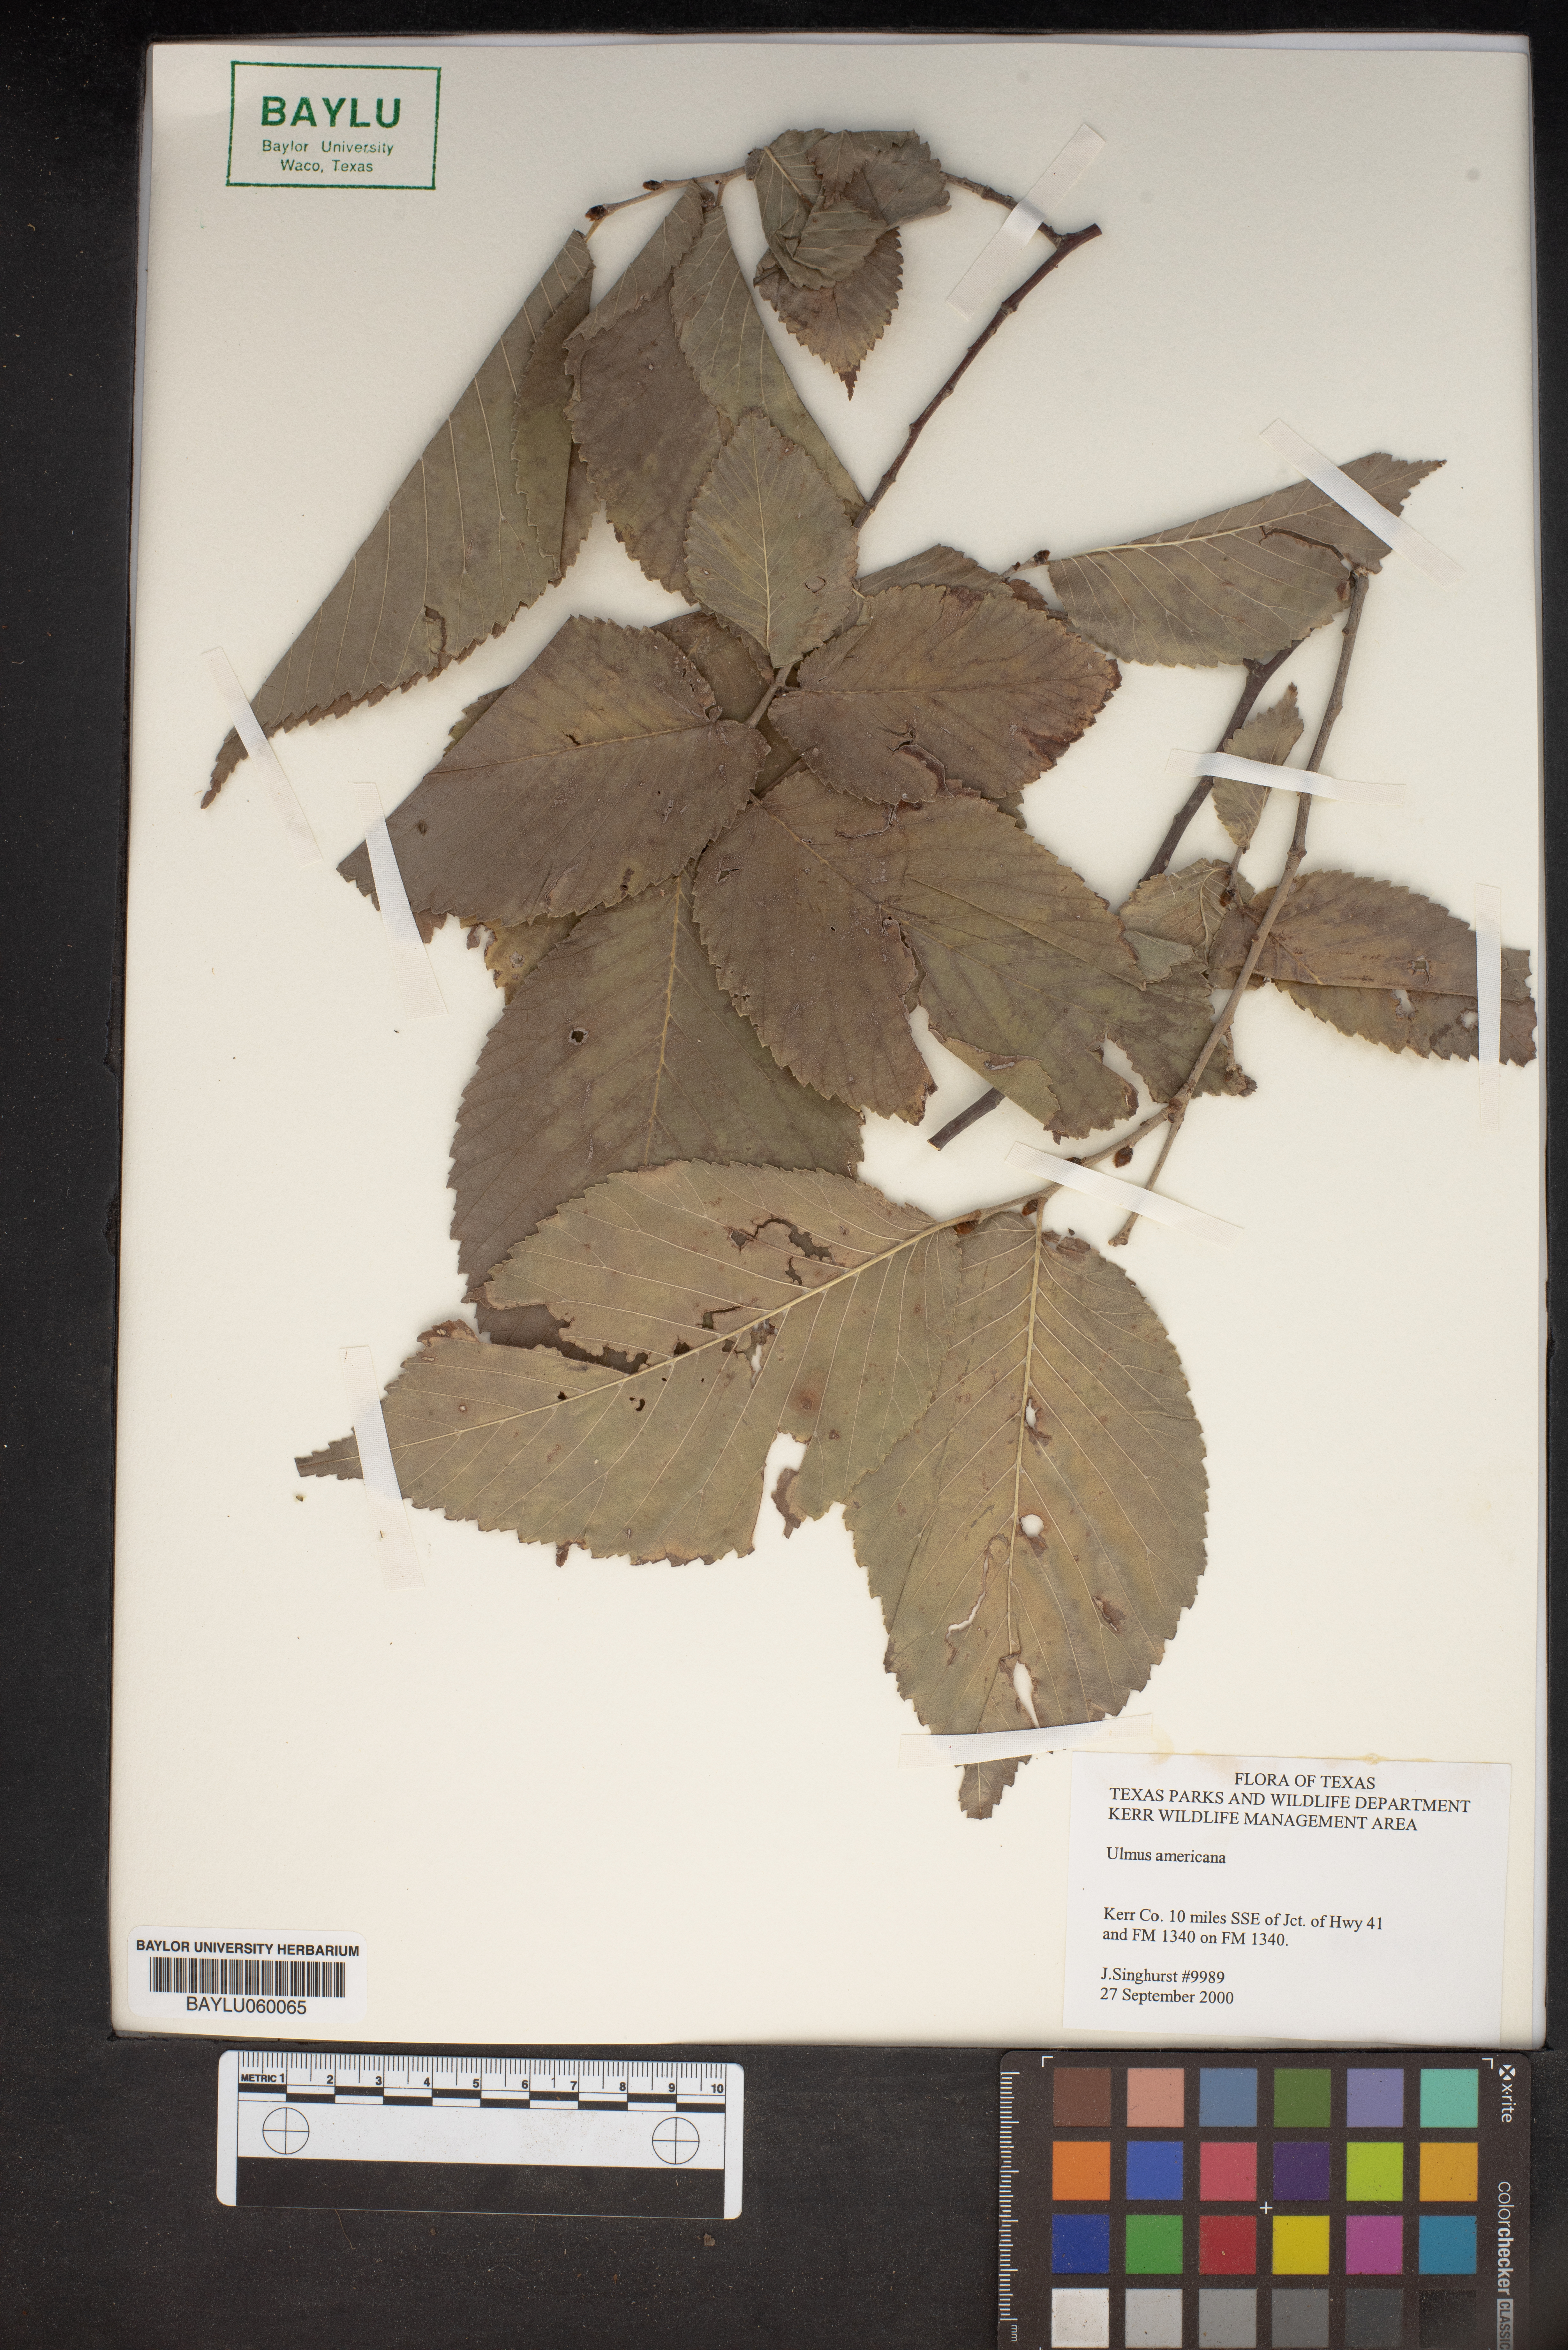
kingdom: Plantae
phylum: Tracheophyta
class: Magnoliopsida
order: Rosales
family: Ulmaceae
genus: Ulmus
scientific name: Ulmus americana
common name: American elm
